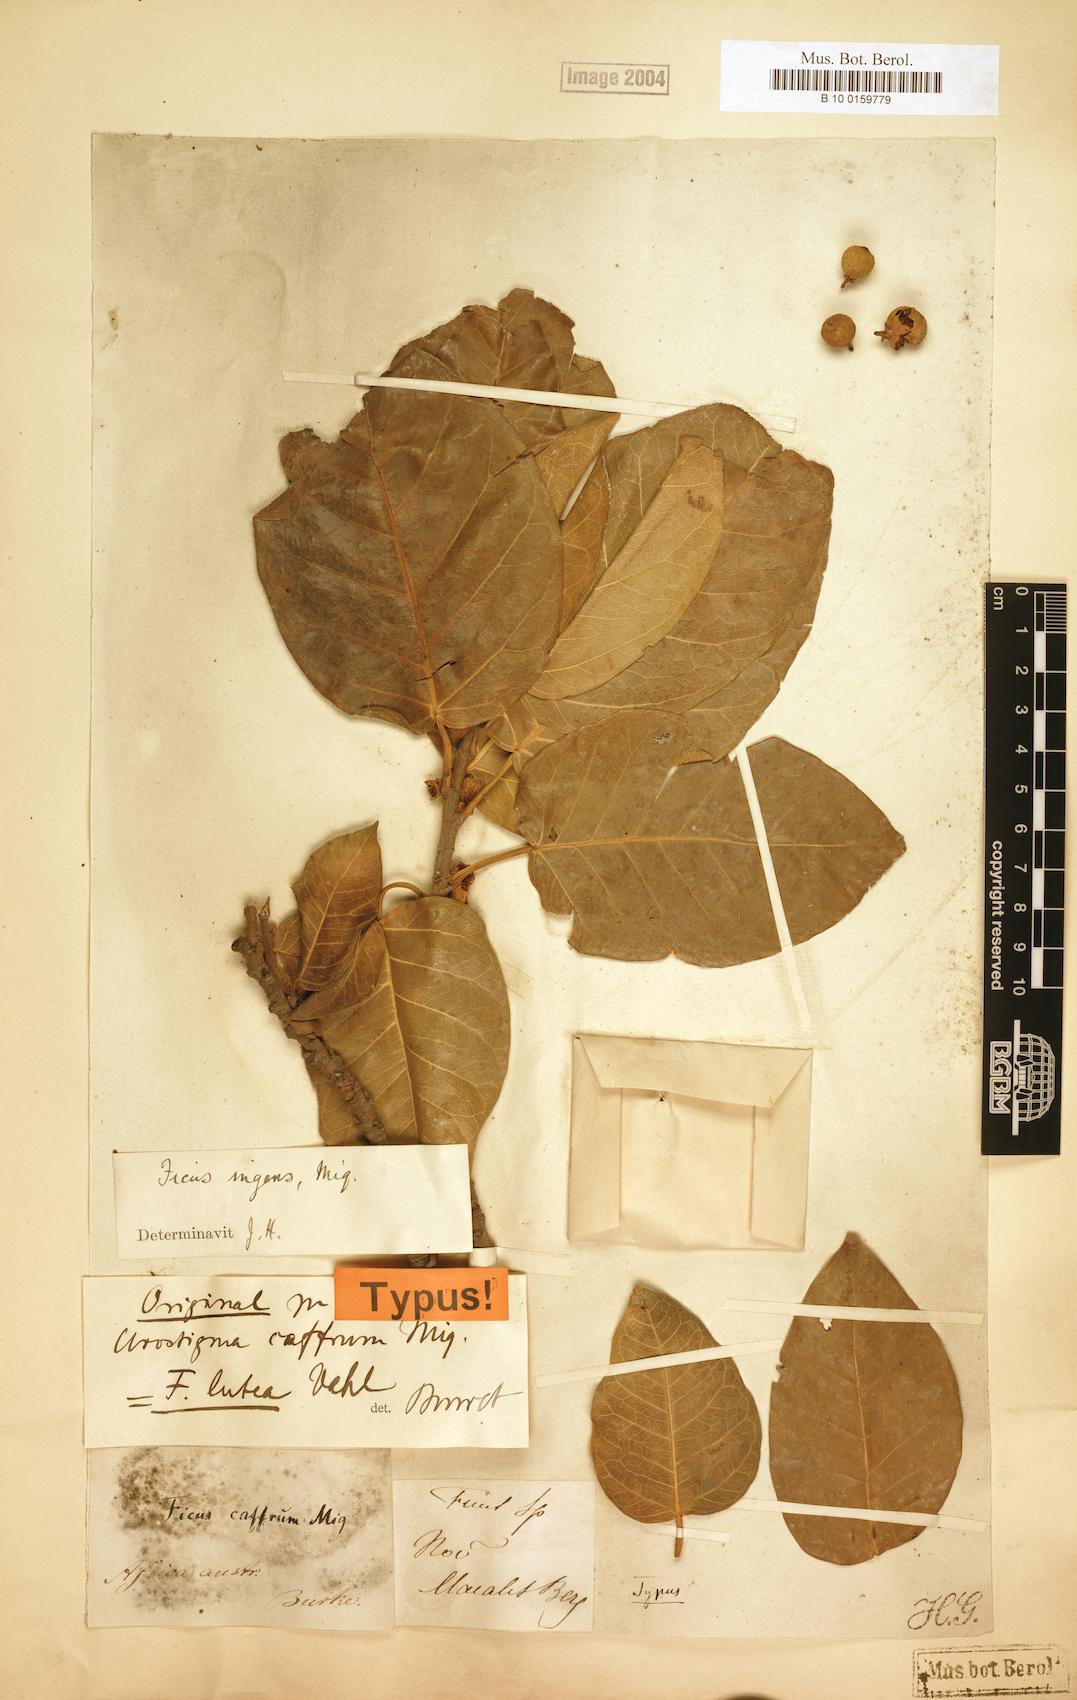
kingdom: Plantae
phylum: Tracheophyta
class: Magnoliopsida
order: Rosales
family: Moraceae
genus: Ficus
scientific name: Ficus ingens
